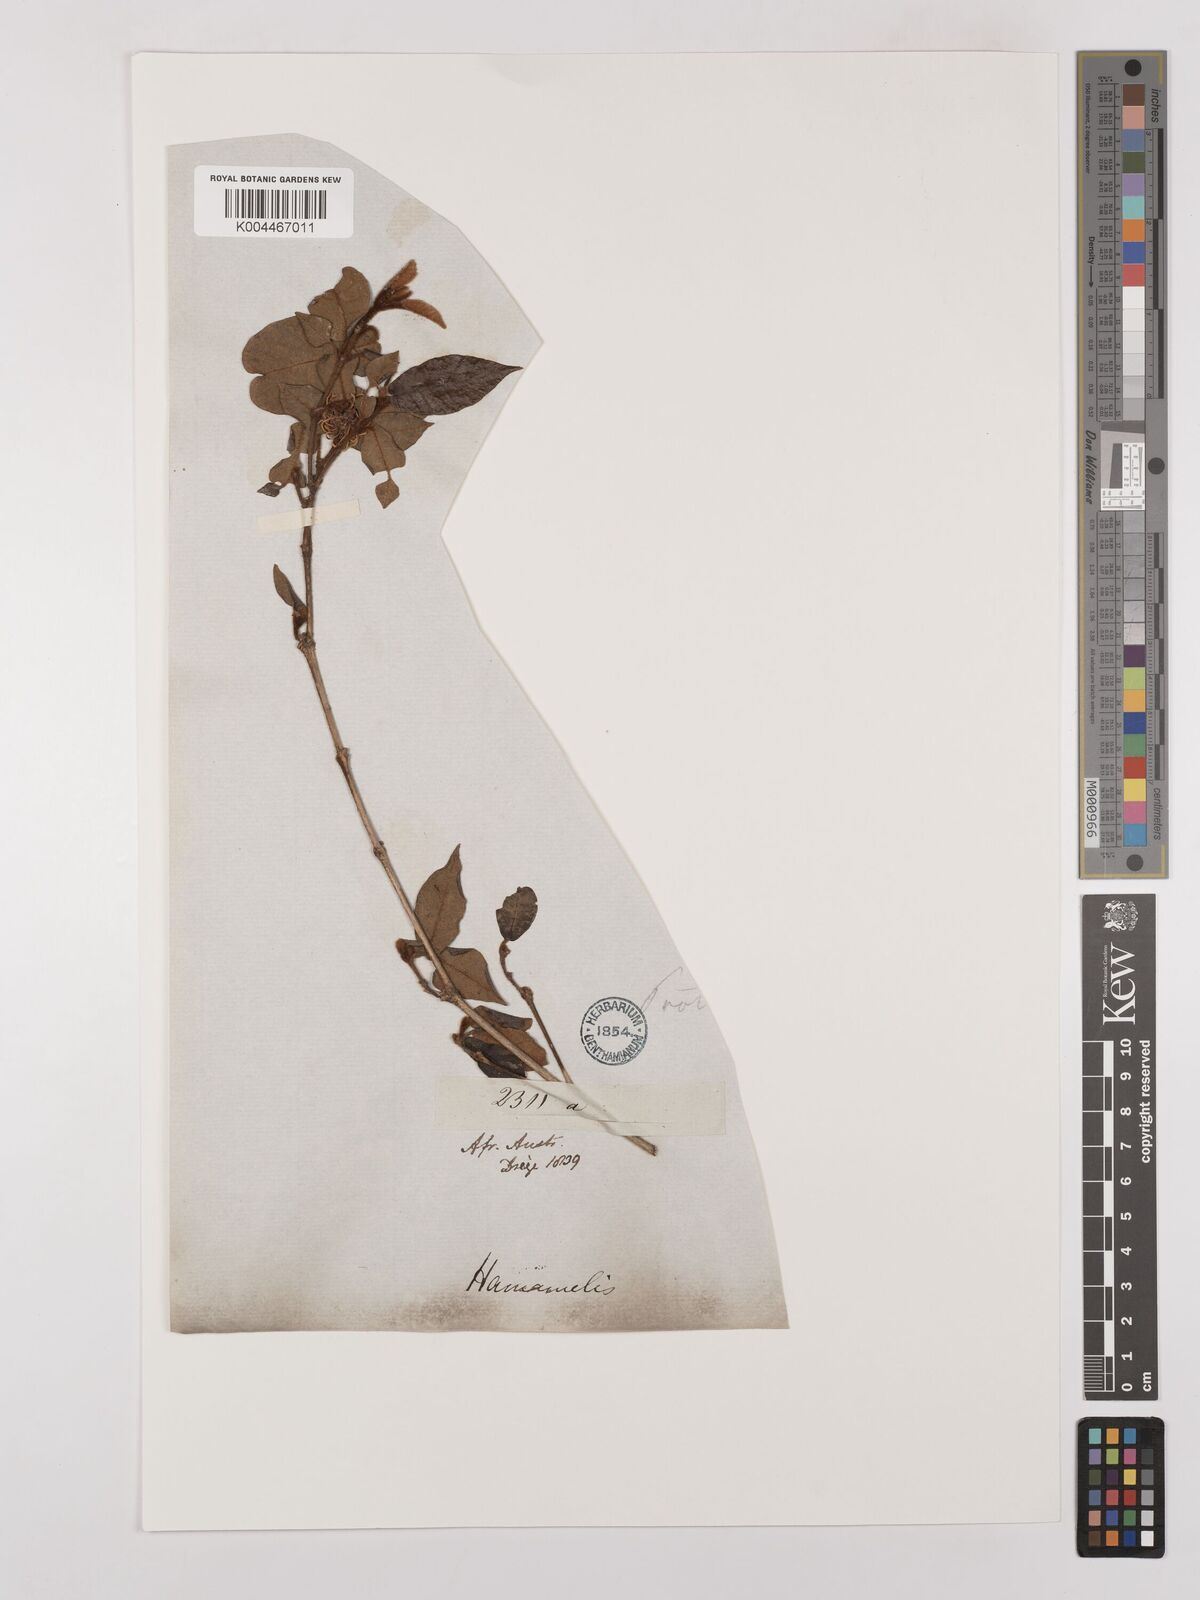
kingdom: Plantae
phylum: Tracheophyta
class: Magnoliopsida
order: Saxifragales
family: Hamamelidaceae
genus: Trichocladus
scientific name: Trichocladus
